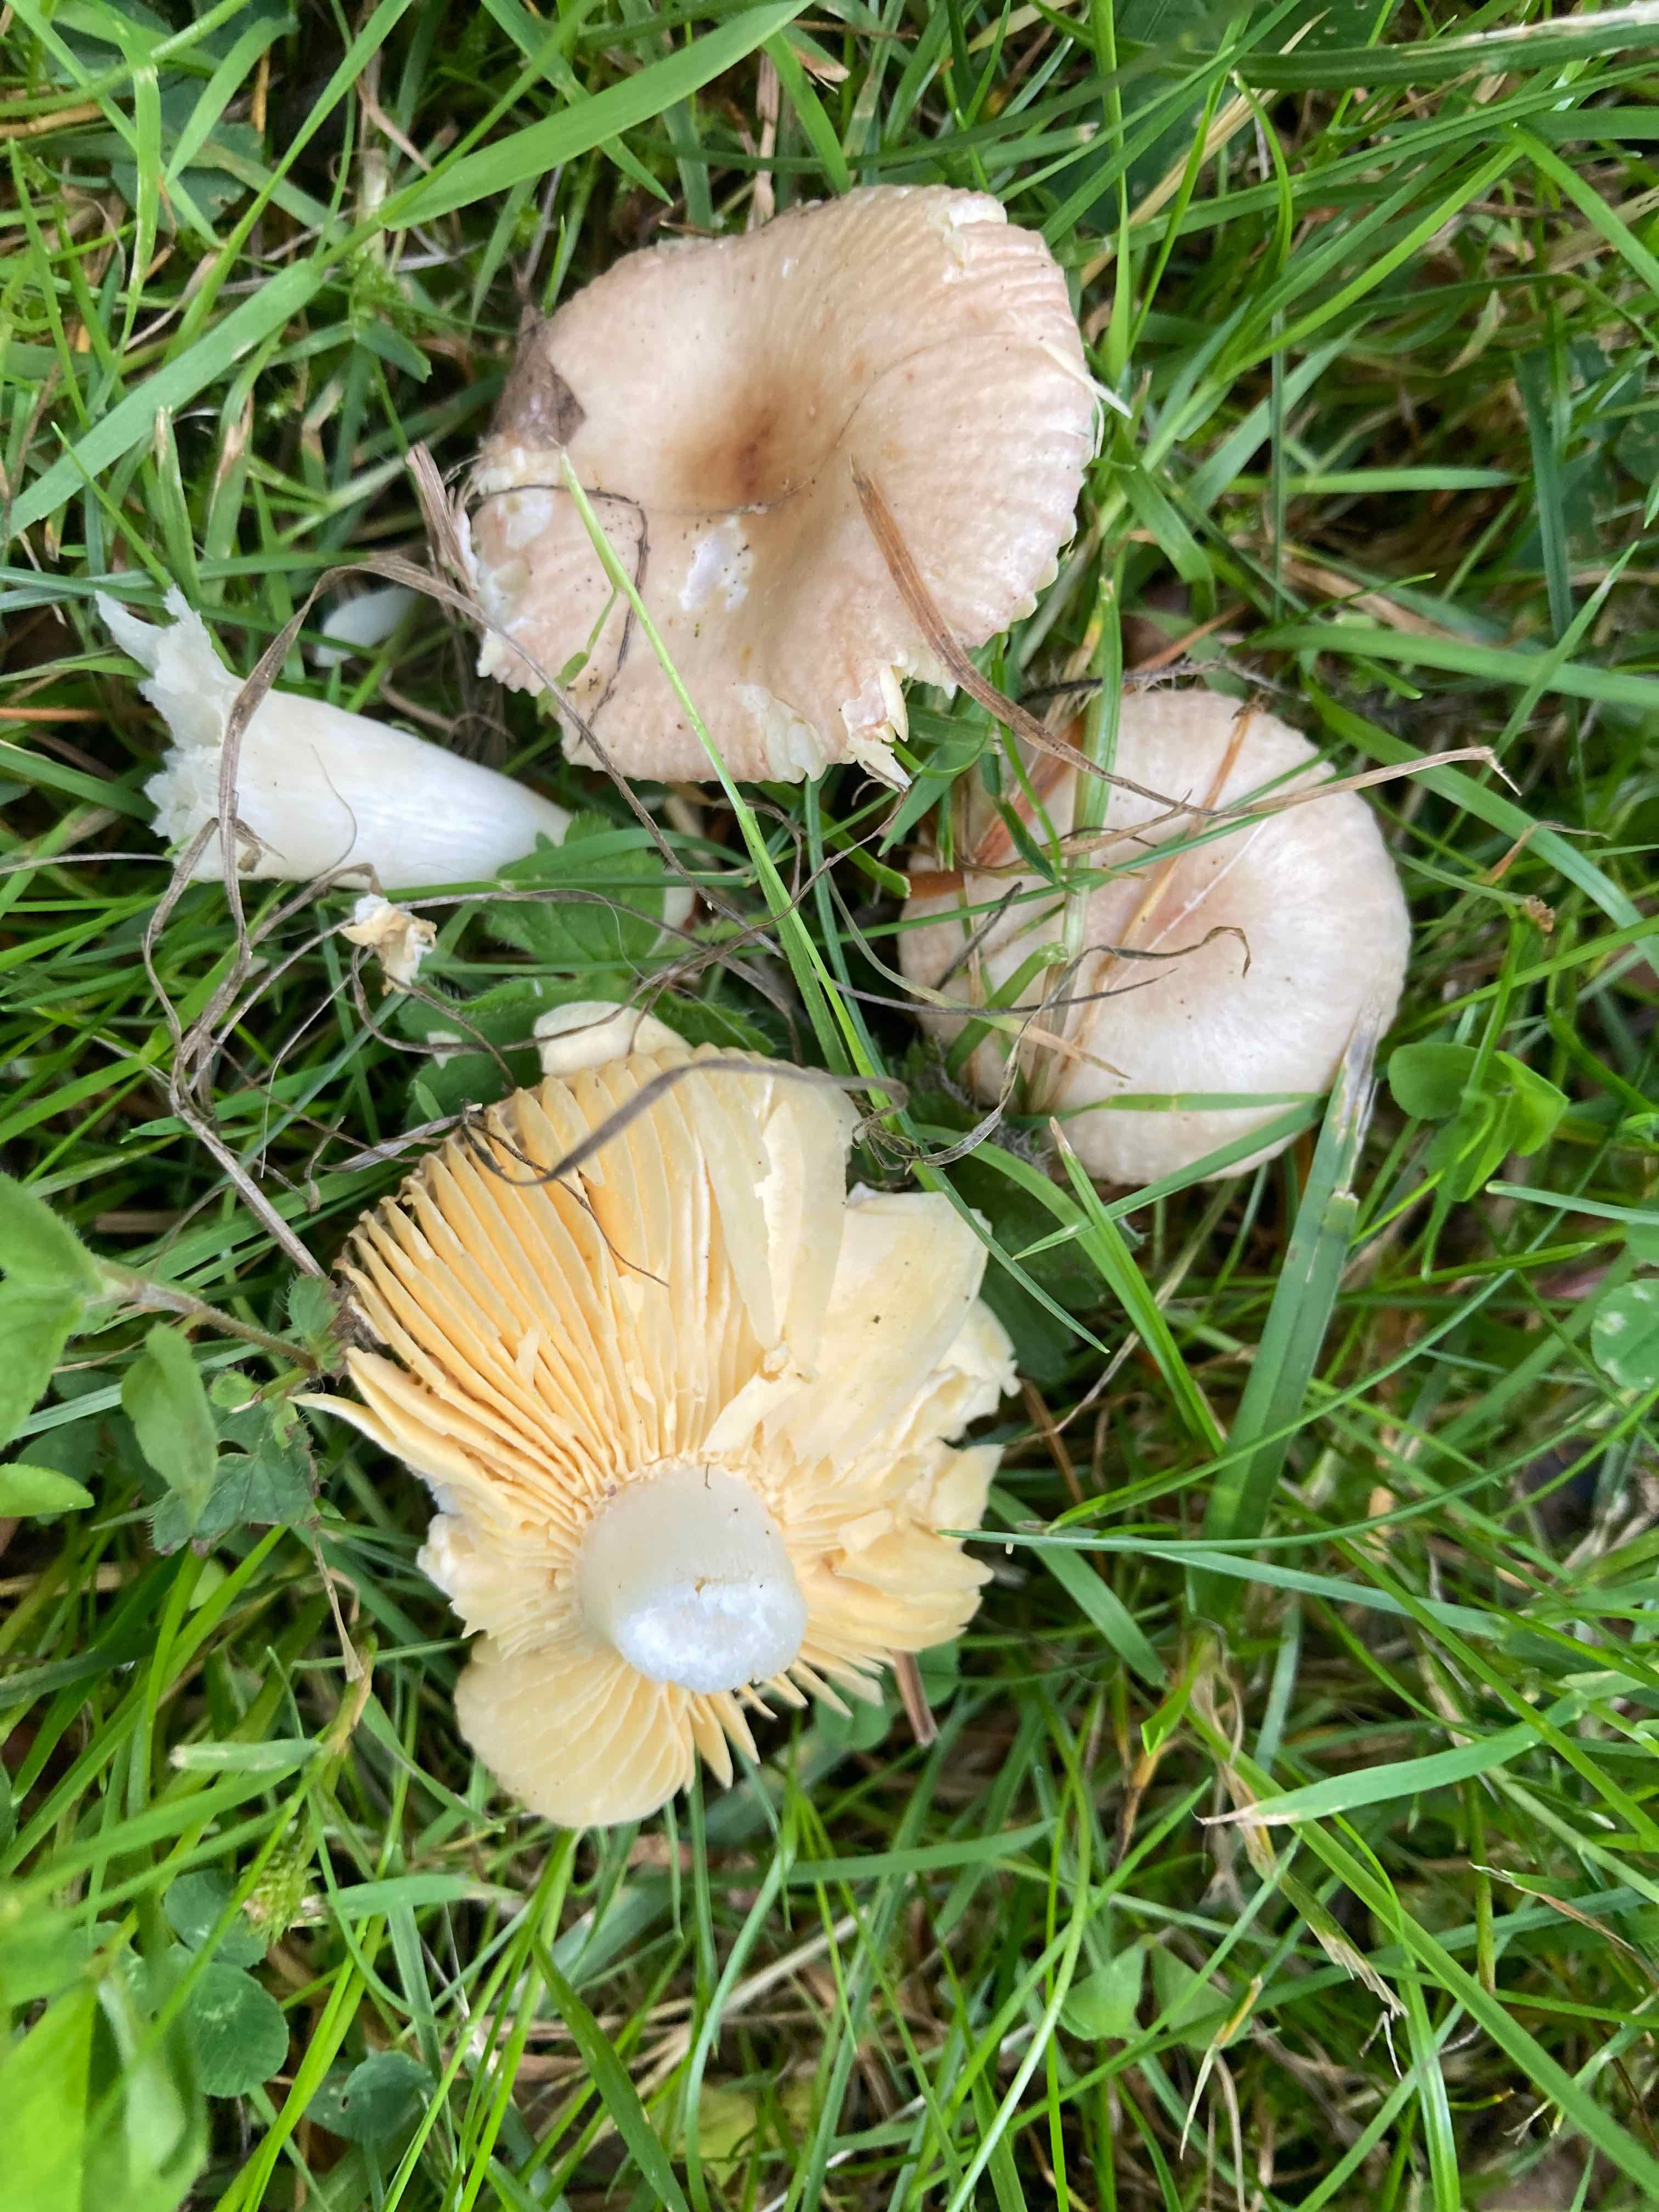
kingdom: Fungi
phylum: Basidiomycota
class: Agaricomycetes
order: Russulales
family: Russulaceae
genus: Russula
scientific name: Russula odorata
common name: duft-skørhat
